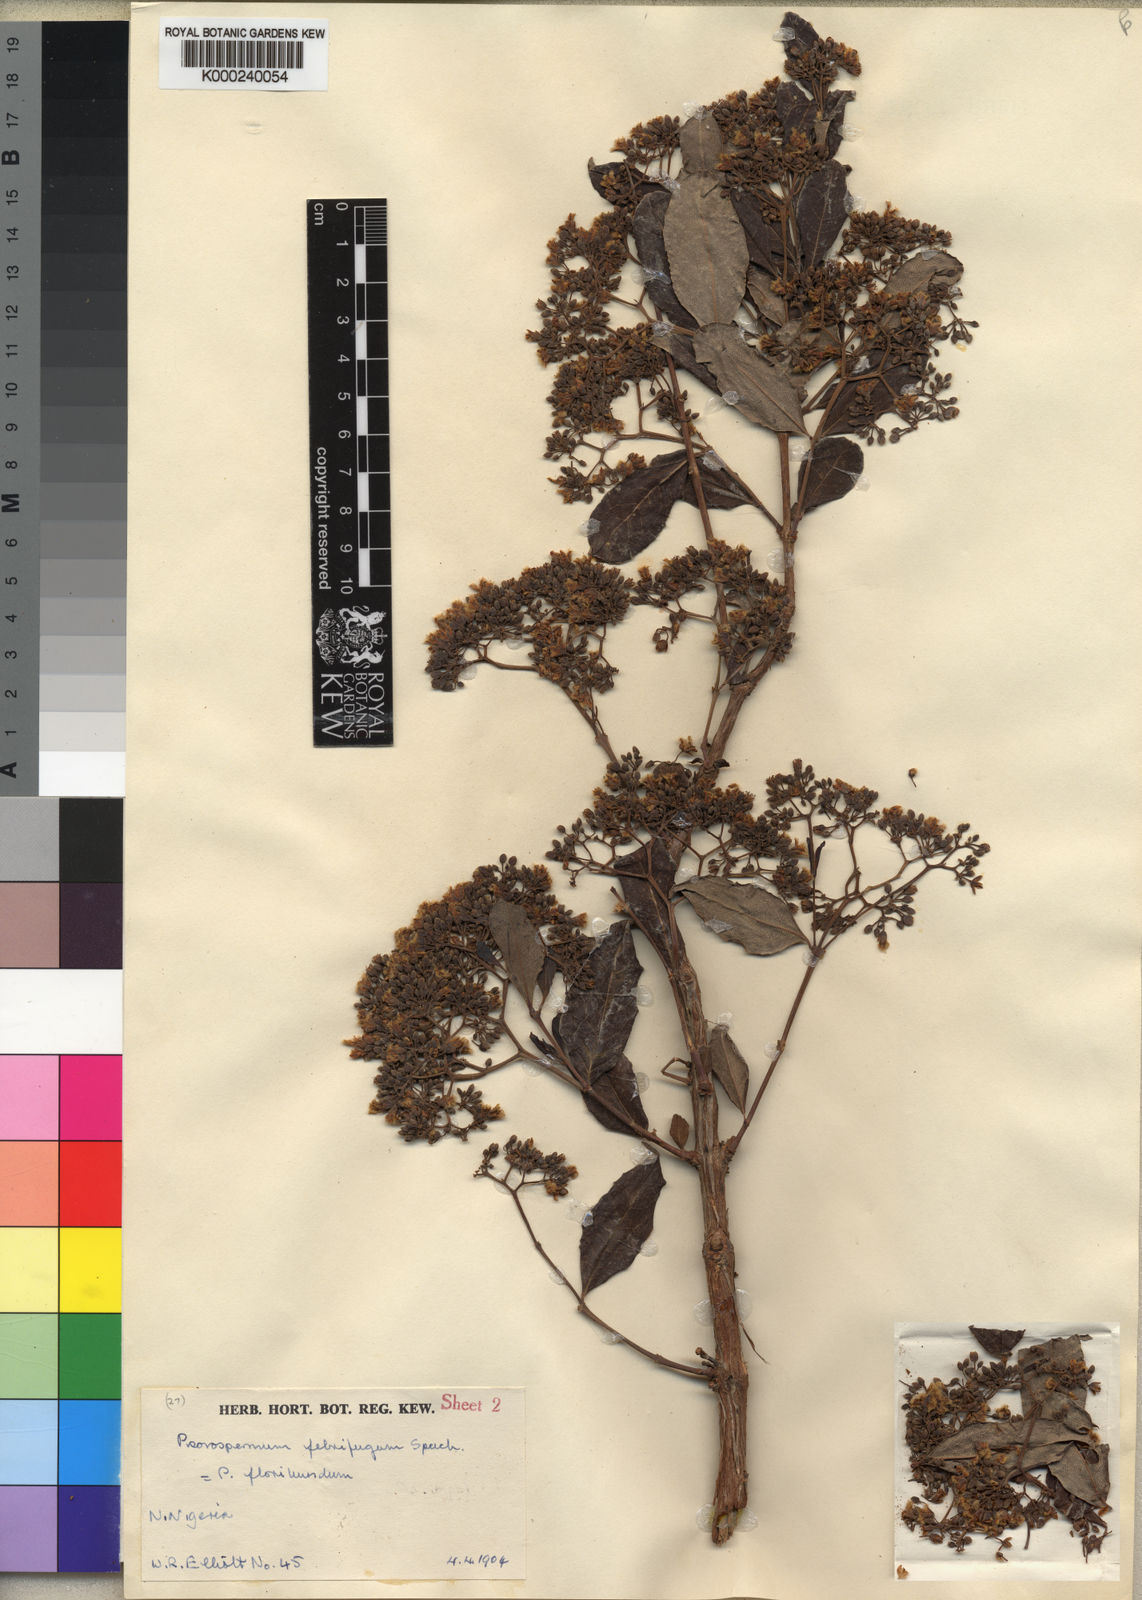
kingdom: Plantae
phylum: Tracheophyta
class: Magnoliopsida
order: Malpighiales
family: Hypericaceae
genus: Psorospermum
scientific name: Psorospermum febrifugum
